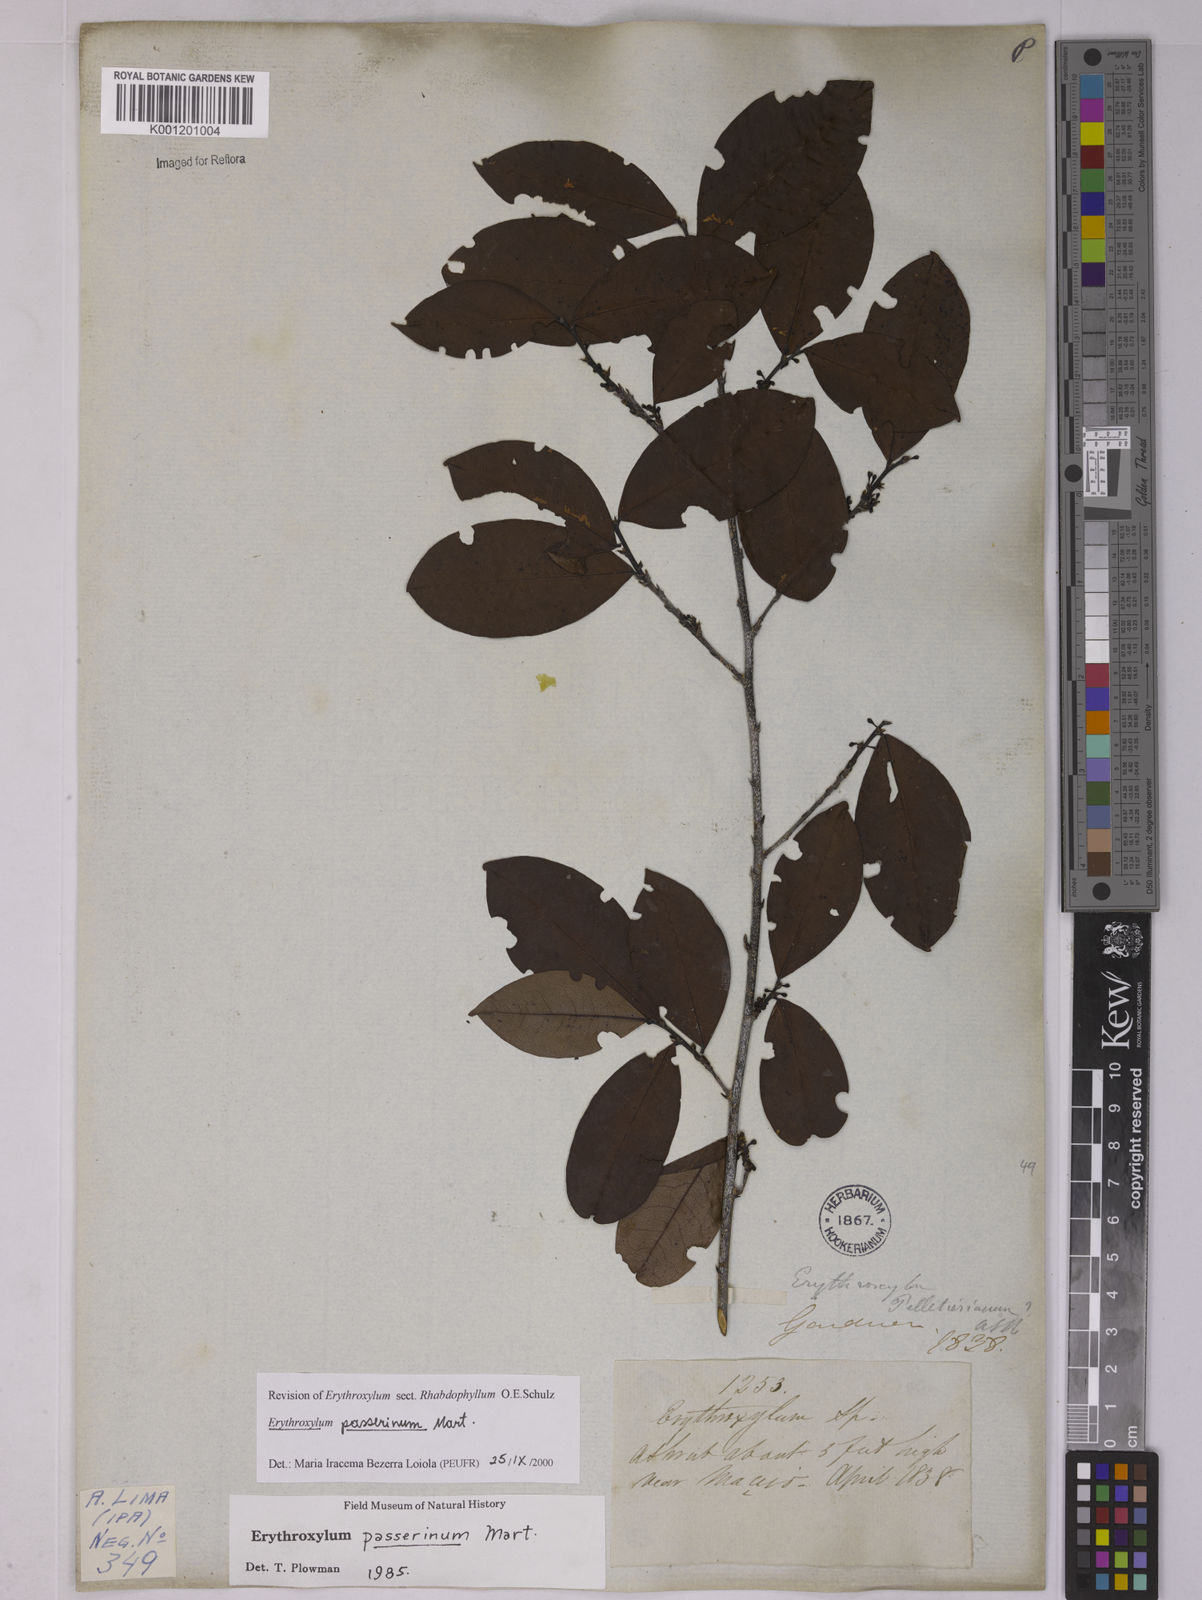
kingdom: Plantae
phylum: Tracheophyta
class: Magnoliopsida
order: Malpighiales
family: Erythroxylaceae
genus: Erythroxylum
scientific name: Erythroxylum passerinum
